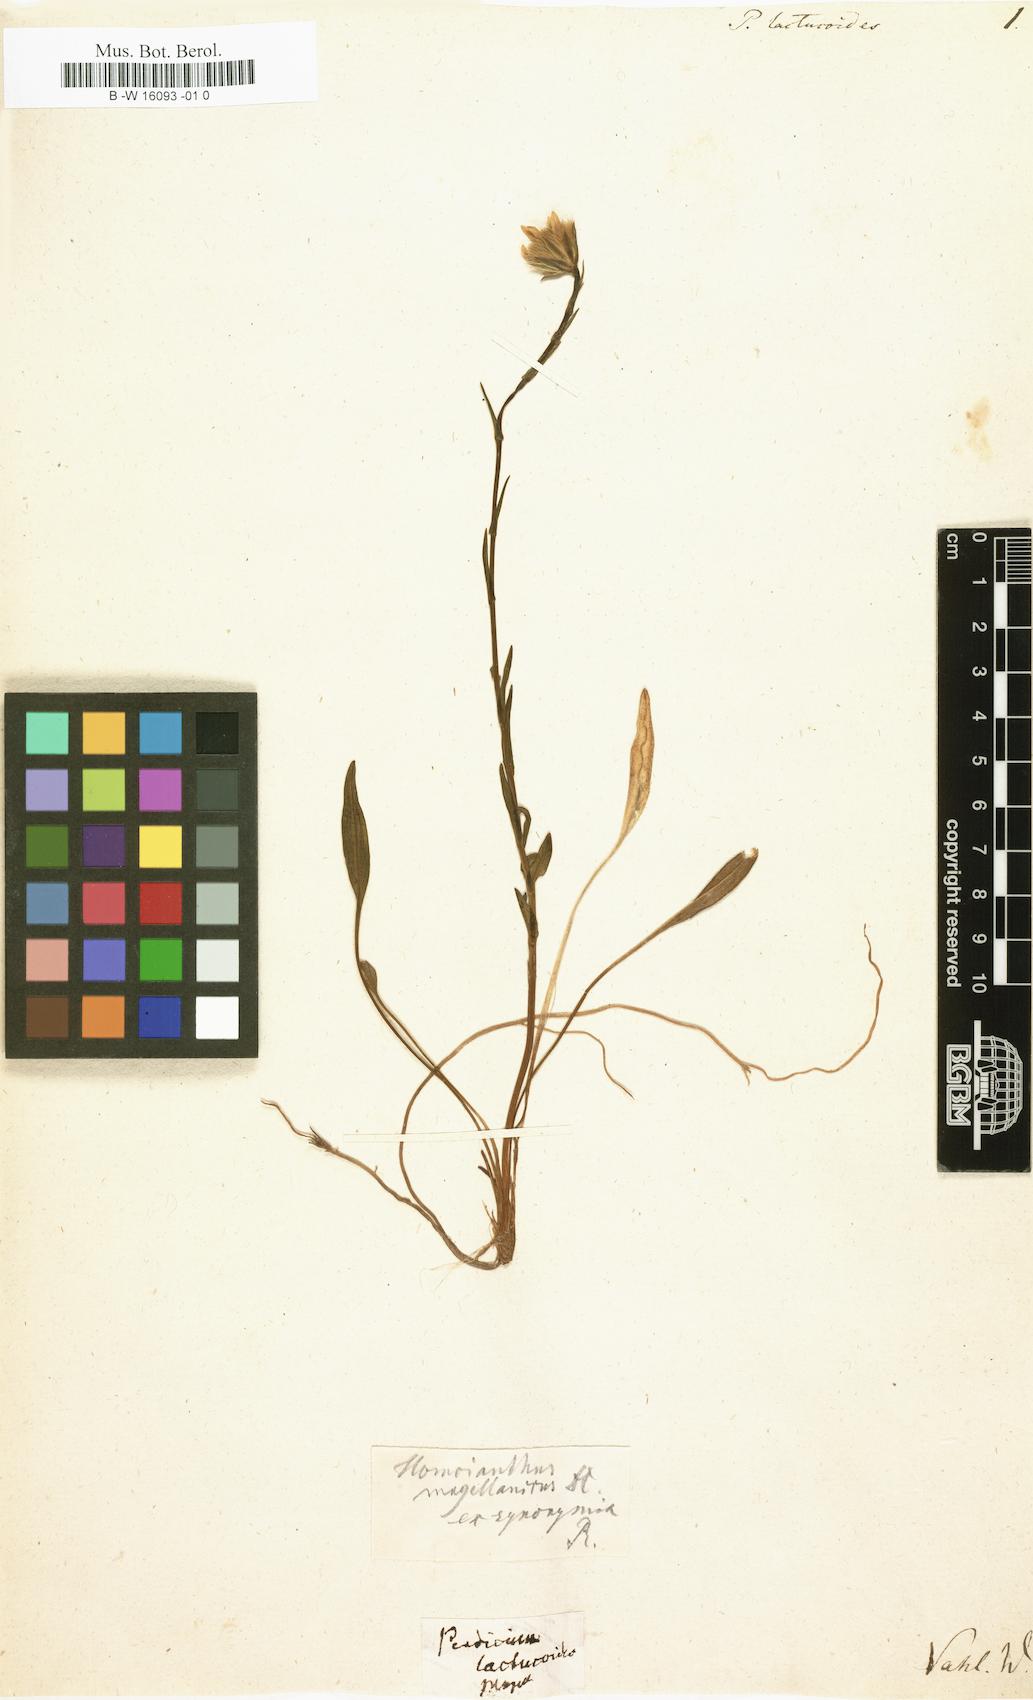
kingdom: Plantae
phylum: Tracheophyta
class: Magnoliopsida
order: Asterales
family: Asteraceae
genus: Perezia
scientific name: Perezia lactucoides
